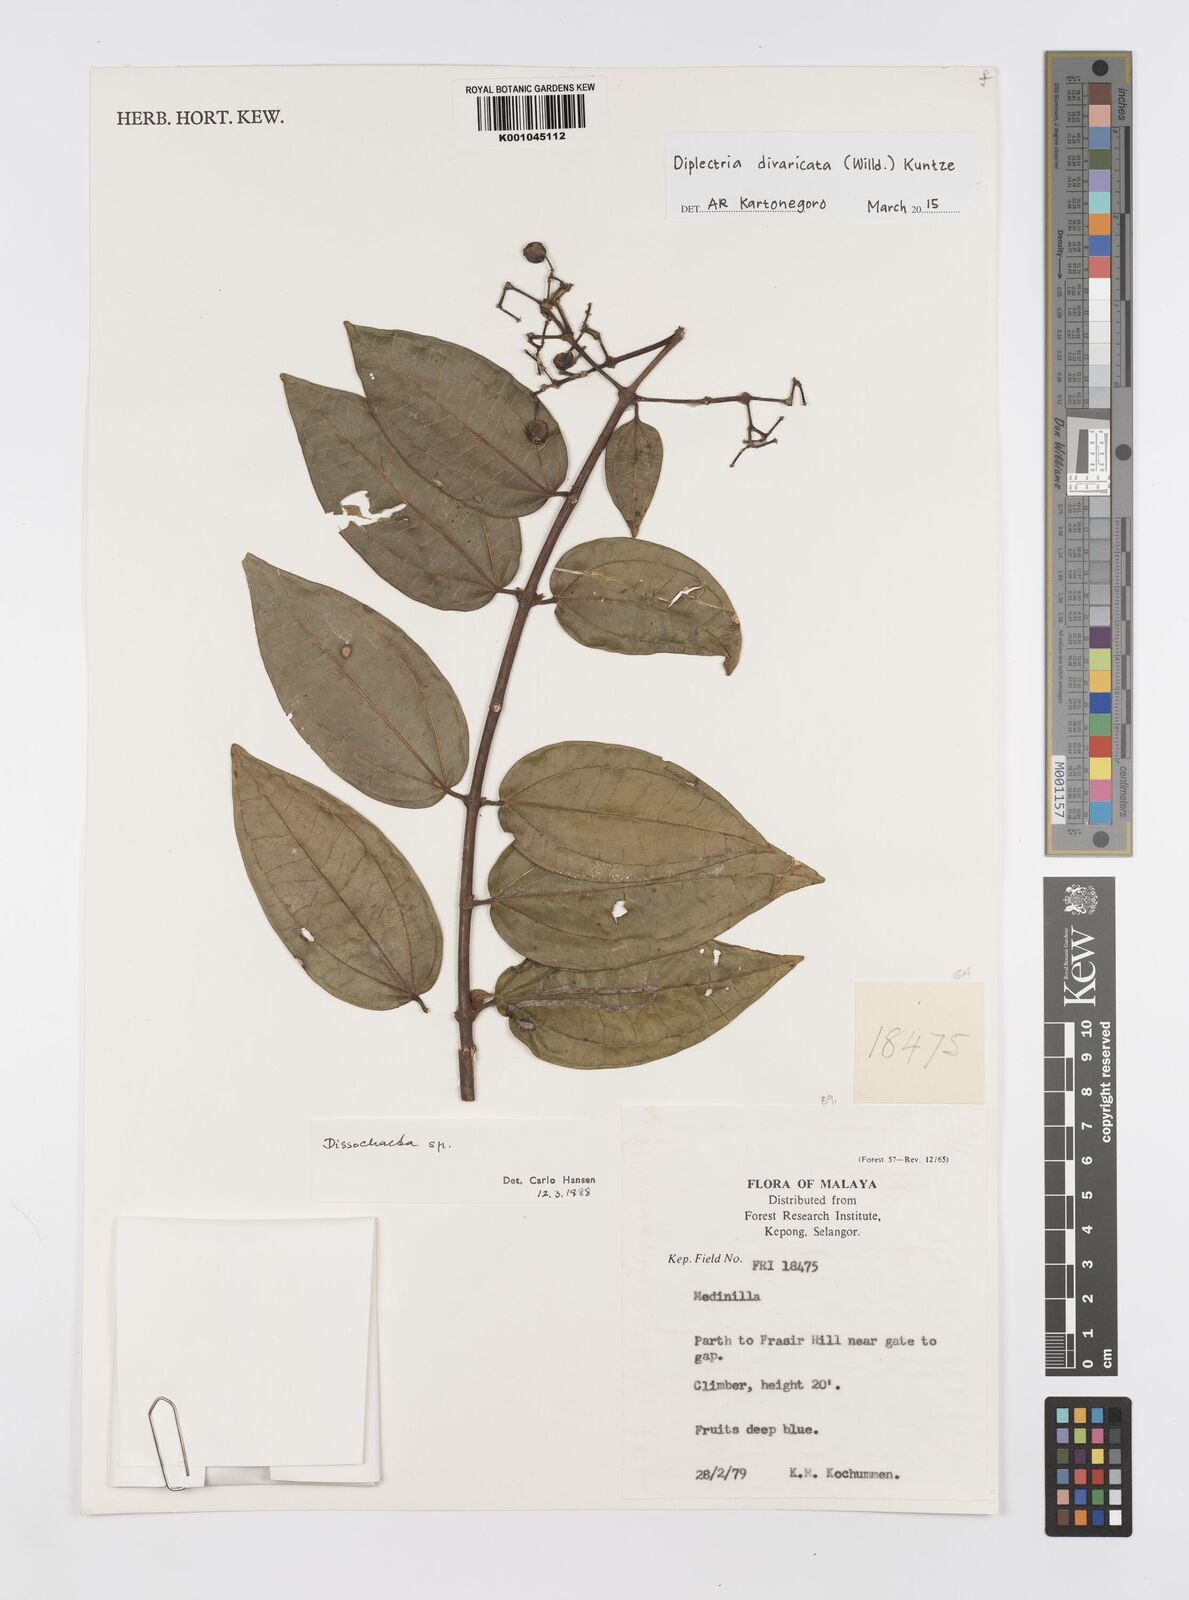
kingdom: Plantae
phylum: Tracheophyta
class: Magnoliopsida
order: Myrtales
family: Melastomataceae
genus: Dissochaeta
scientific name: Dissochaeta annulata
